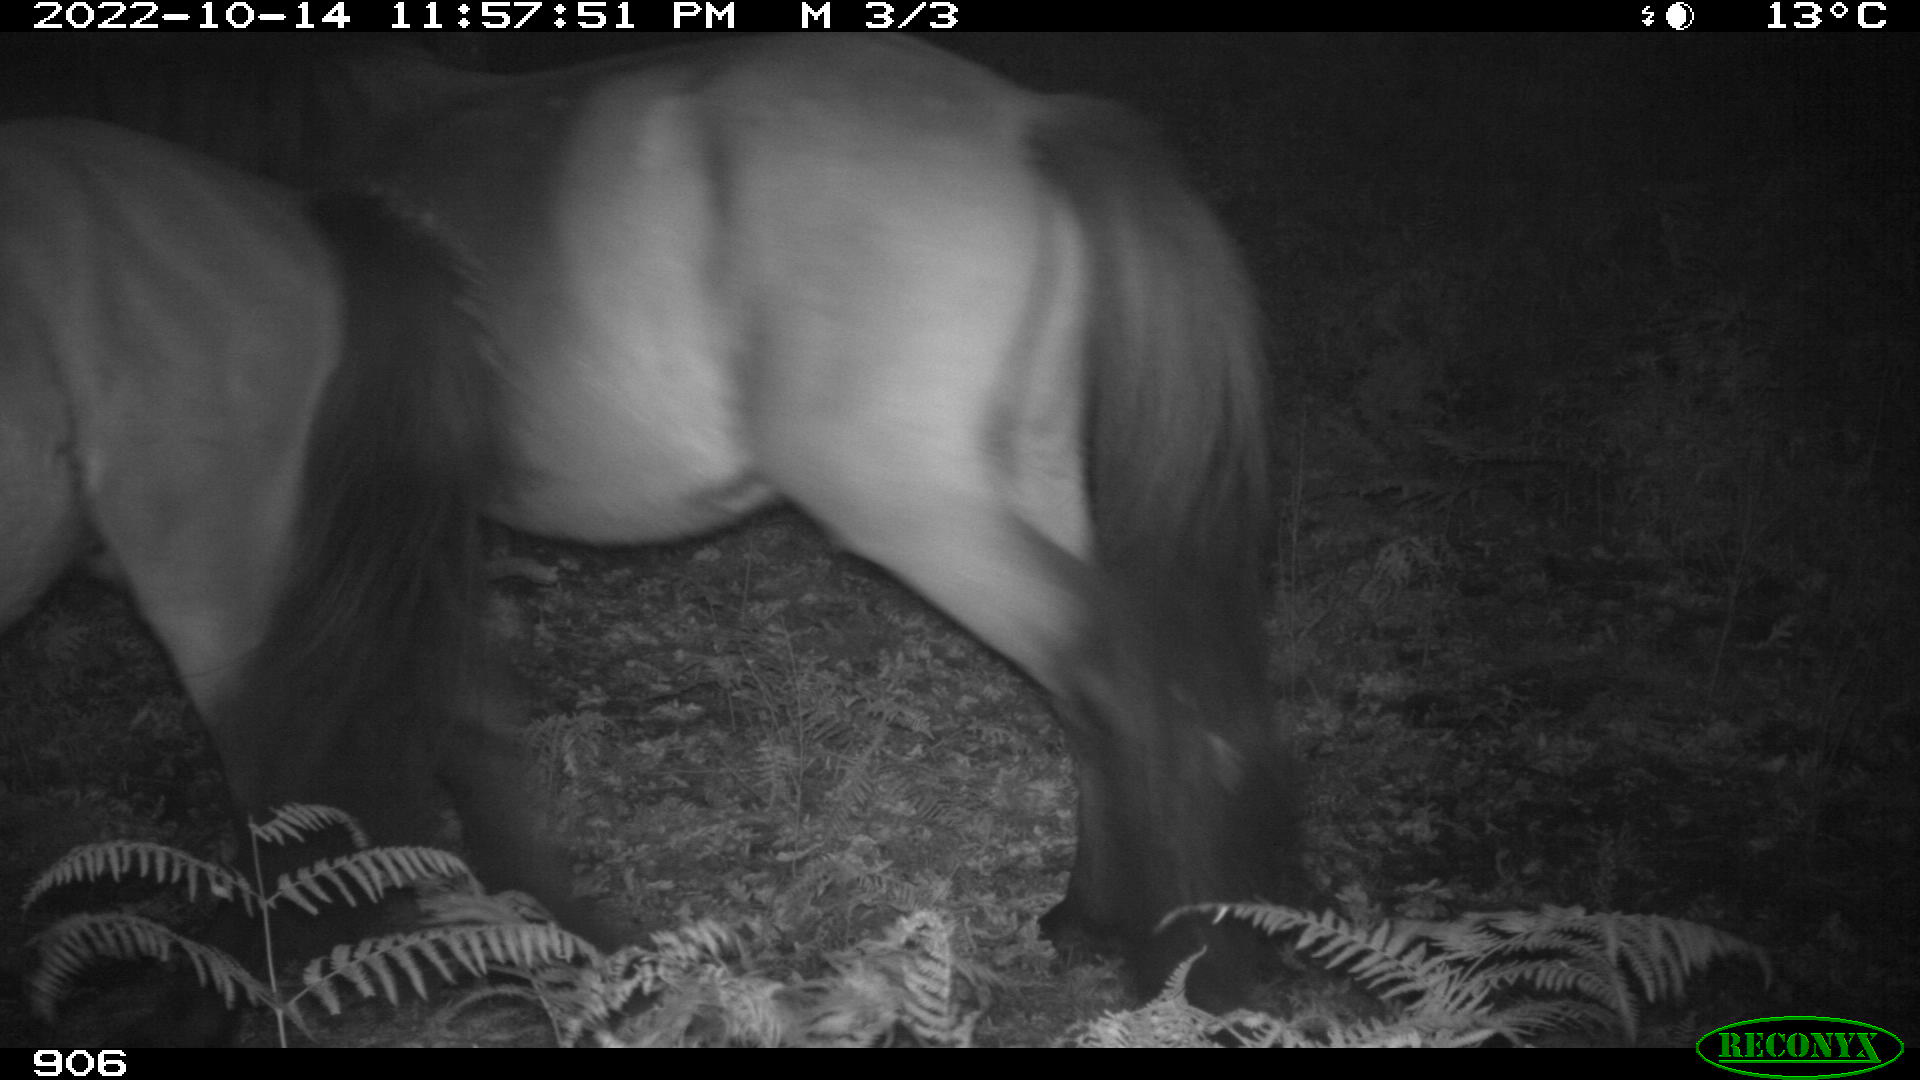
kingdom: Animalia
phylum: Chordata
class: Mammalia
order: Perissodactyla
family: Equidae
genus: Equus
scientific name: Equus caballus
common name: Horse
